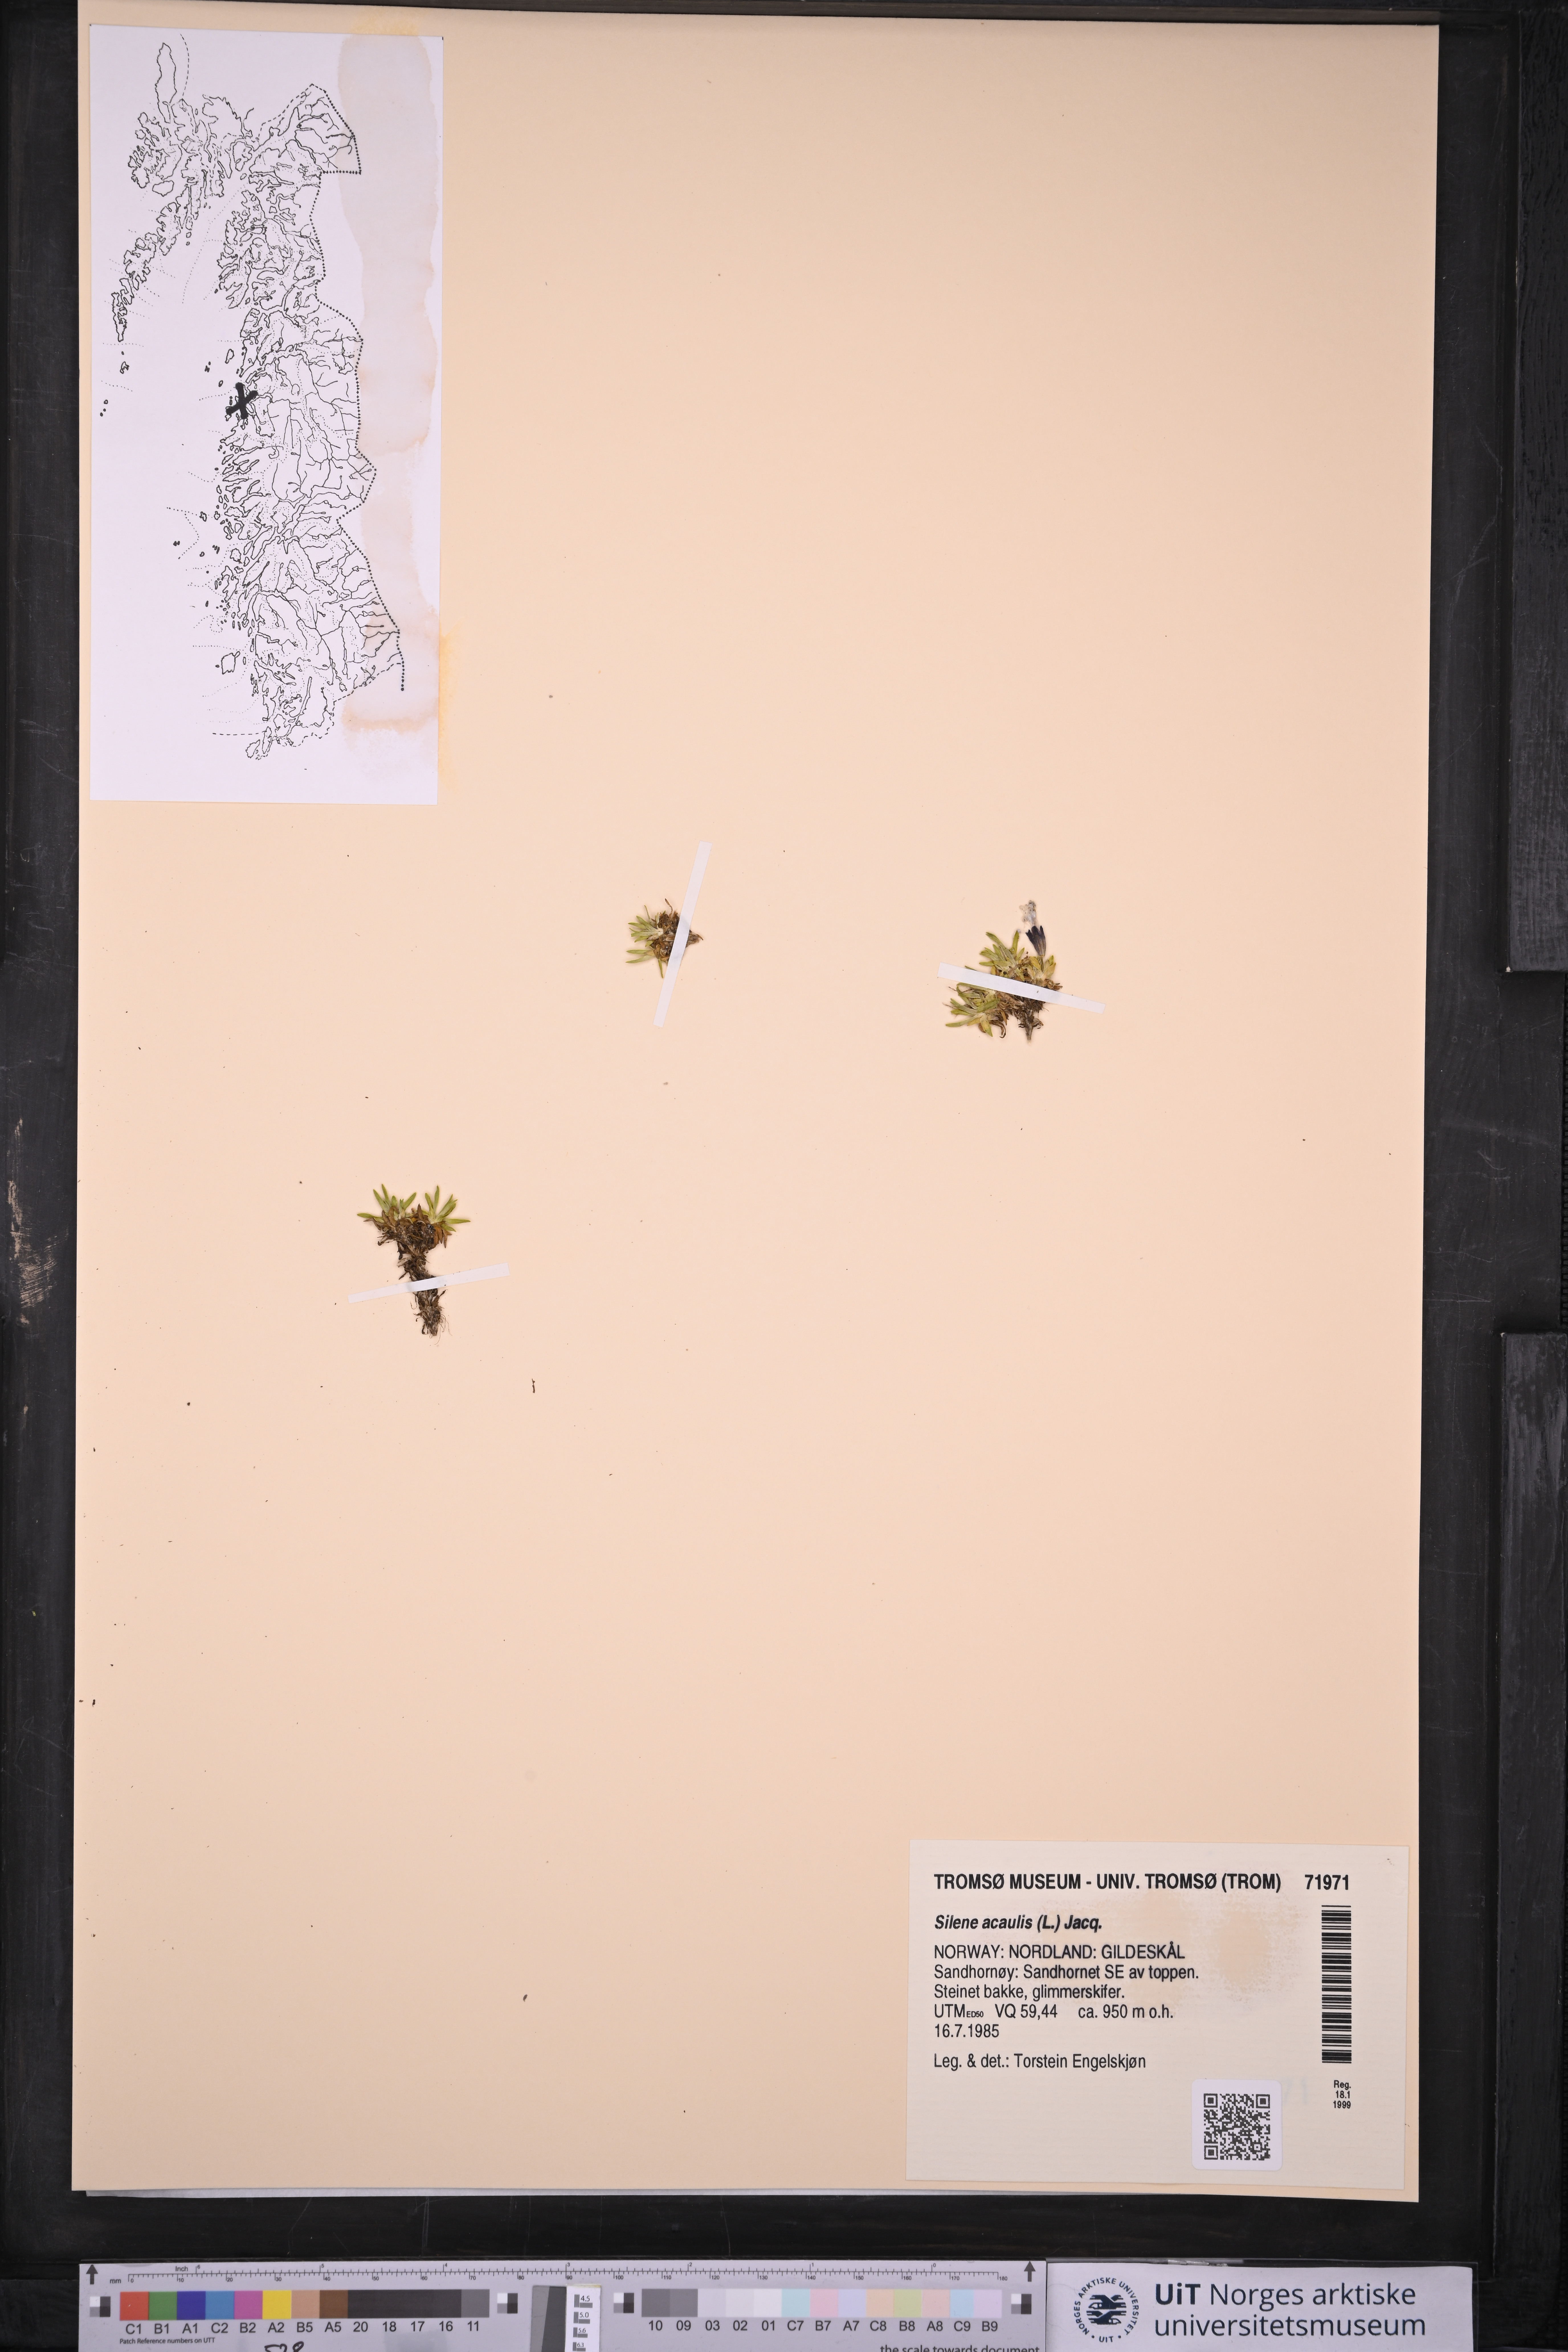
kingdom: Plantae
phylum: Tracheophyta
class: Magnoliopsida
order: Caryophyllales
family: Caryophyllaceae
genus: Silene
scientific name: Silene acaulis
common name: Moss campion
